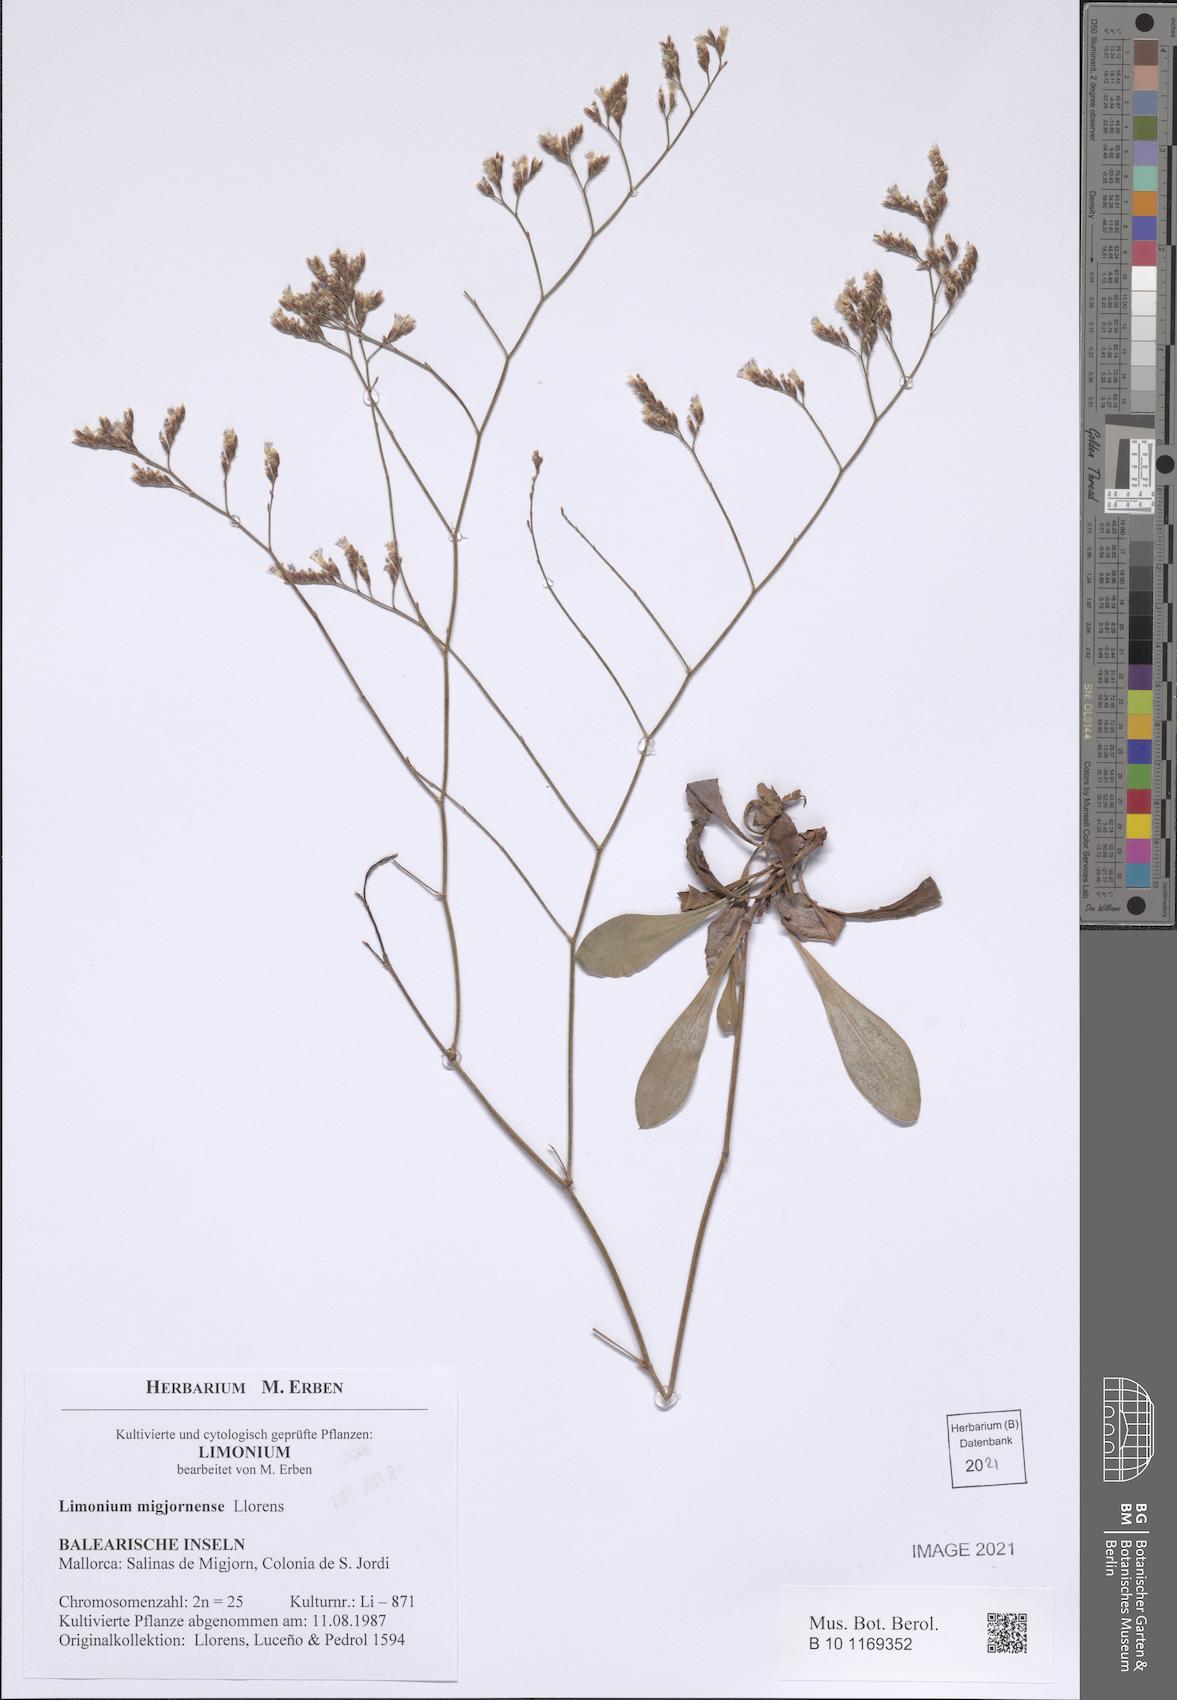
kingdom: Plantae
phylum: Tracheophyta
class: Magnoliopsida
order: Caryophyllales
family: Plumbaginaceae
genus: Limonium
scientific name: Limonium migjornense
